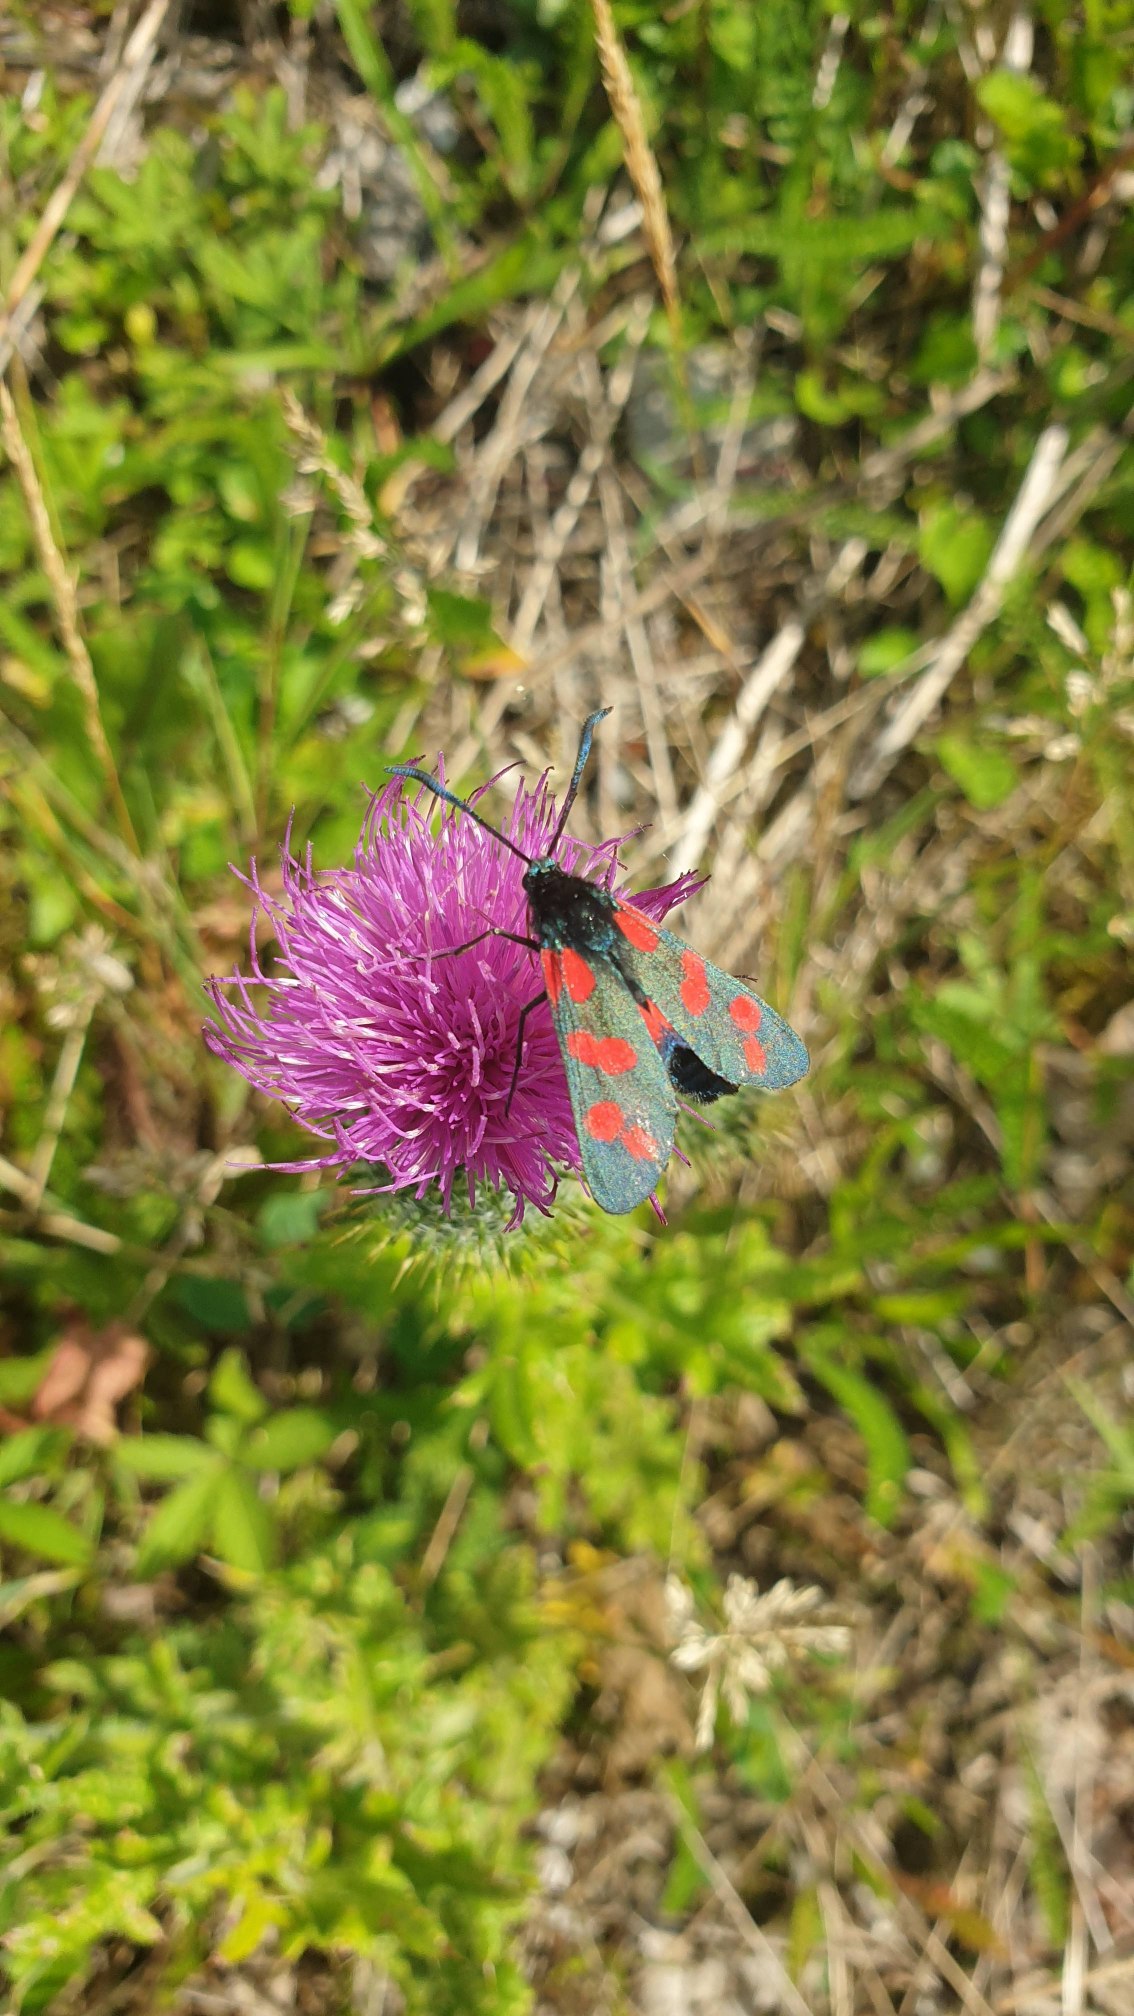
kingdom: Animalia
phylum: Arthropoda
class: Insecta
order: Lepidoptera
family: Zygaenidae
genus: Zygaena
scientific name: Zygaena filipendulae
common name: Seksplettet køllesværmer
